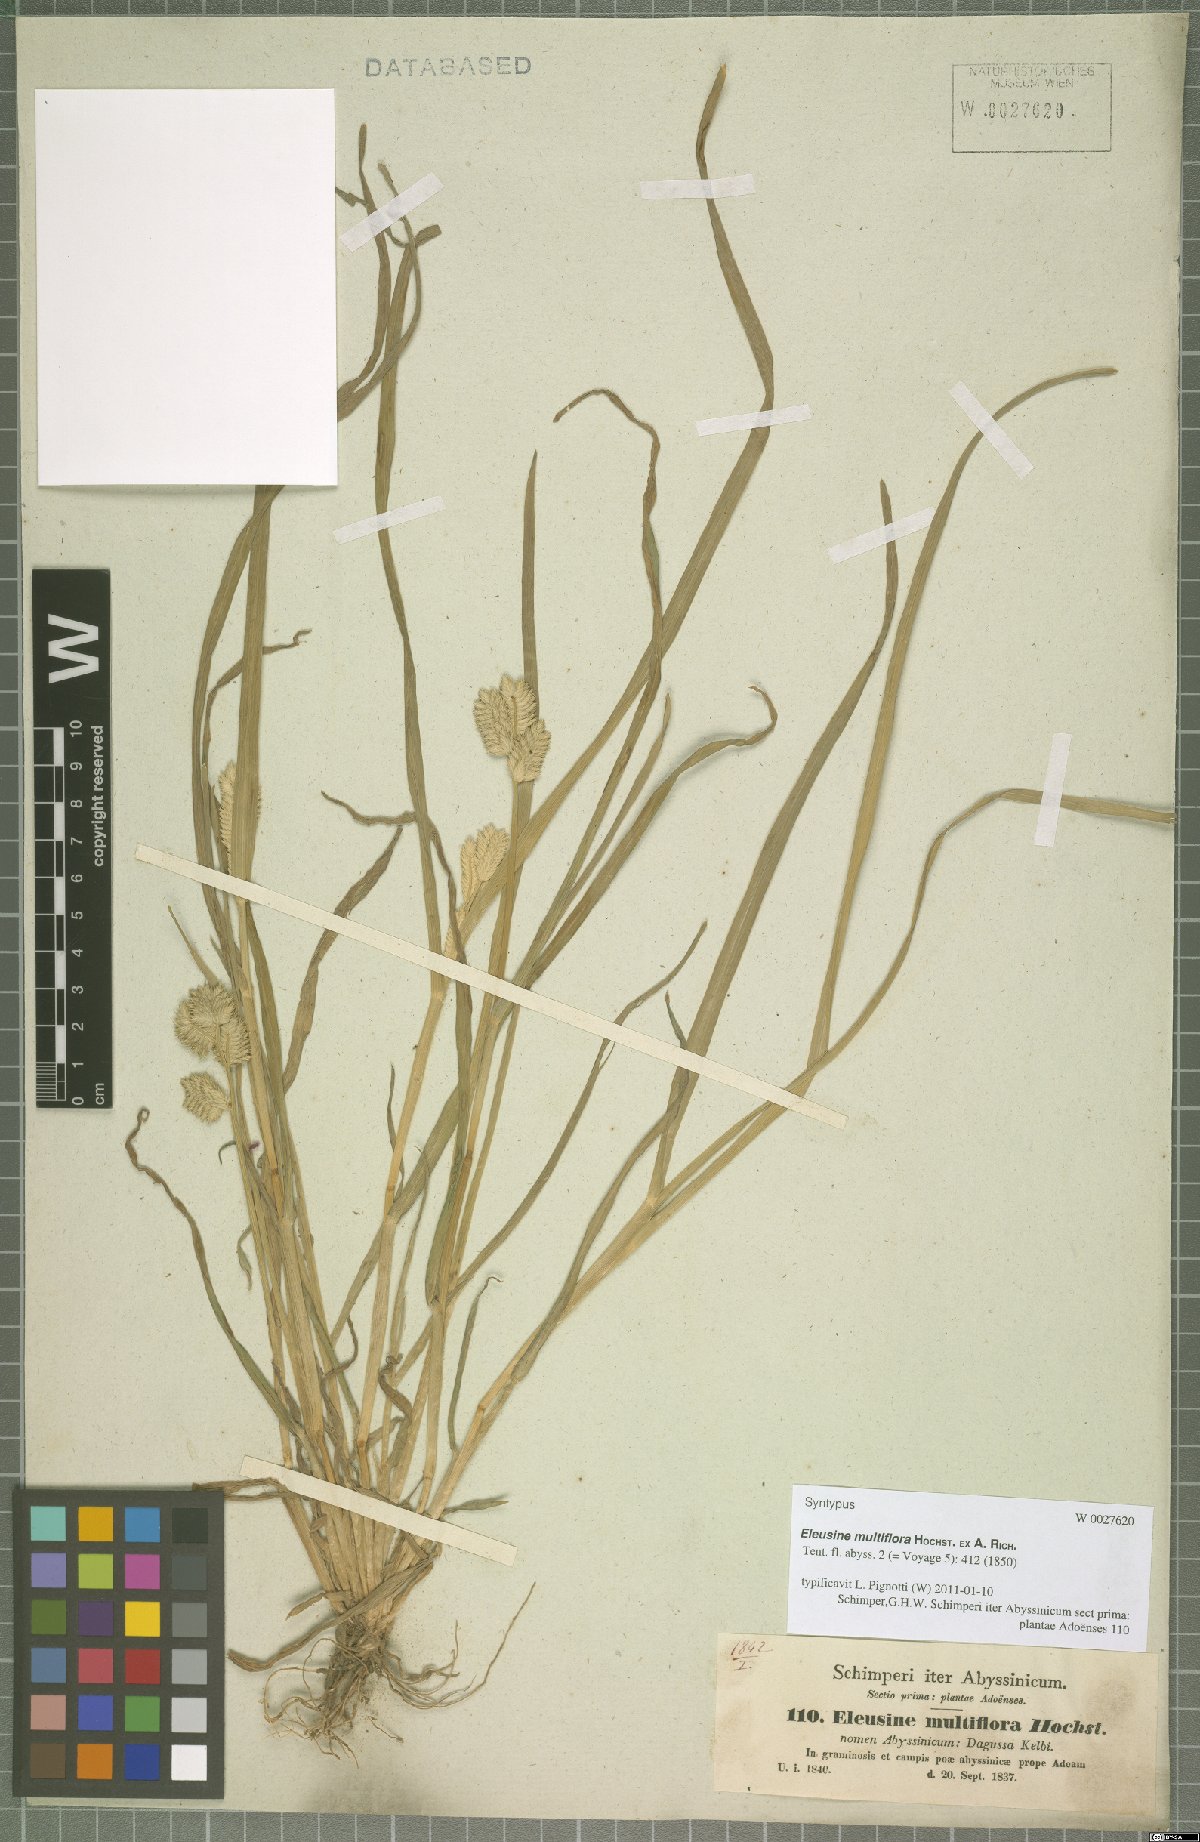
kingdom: Plantae
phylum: Tracheophyta
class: Liliopsida
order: Poales
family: Poaceae
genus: Eleusine
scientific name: Eleusine multiflora
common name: Fat-spiked yard-grass
